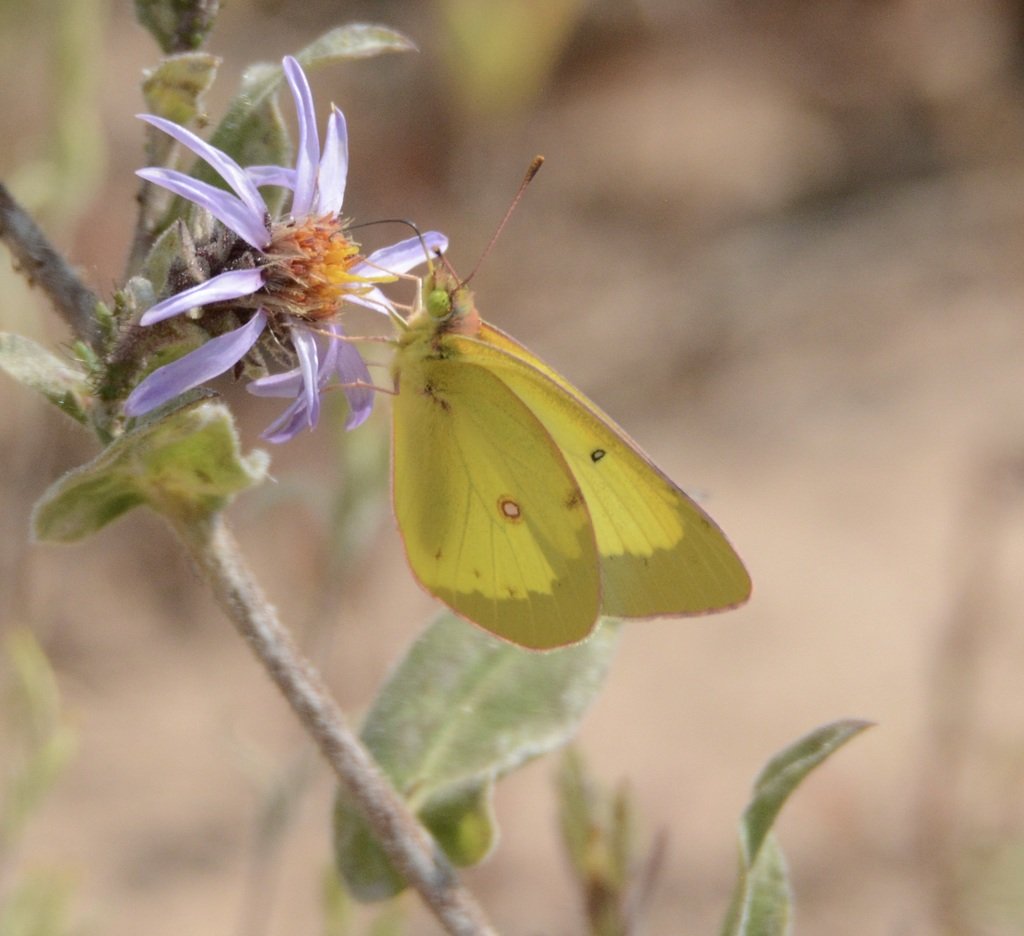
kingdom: Animalia
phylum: Arthropoda
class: Insecta
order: Lepidoptera
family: Pieridae
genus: Colias
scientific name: Colias philodice
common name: Clouded Sulphur
